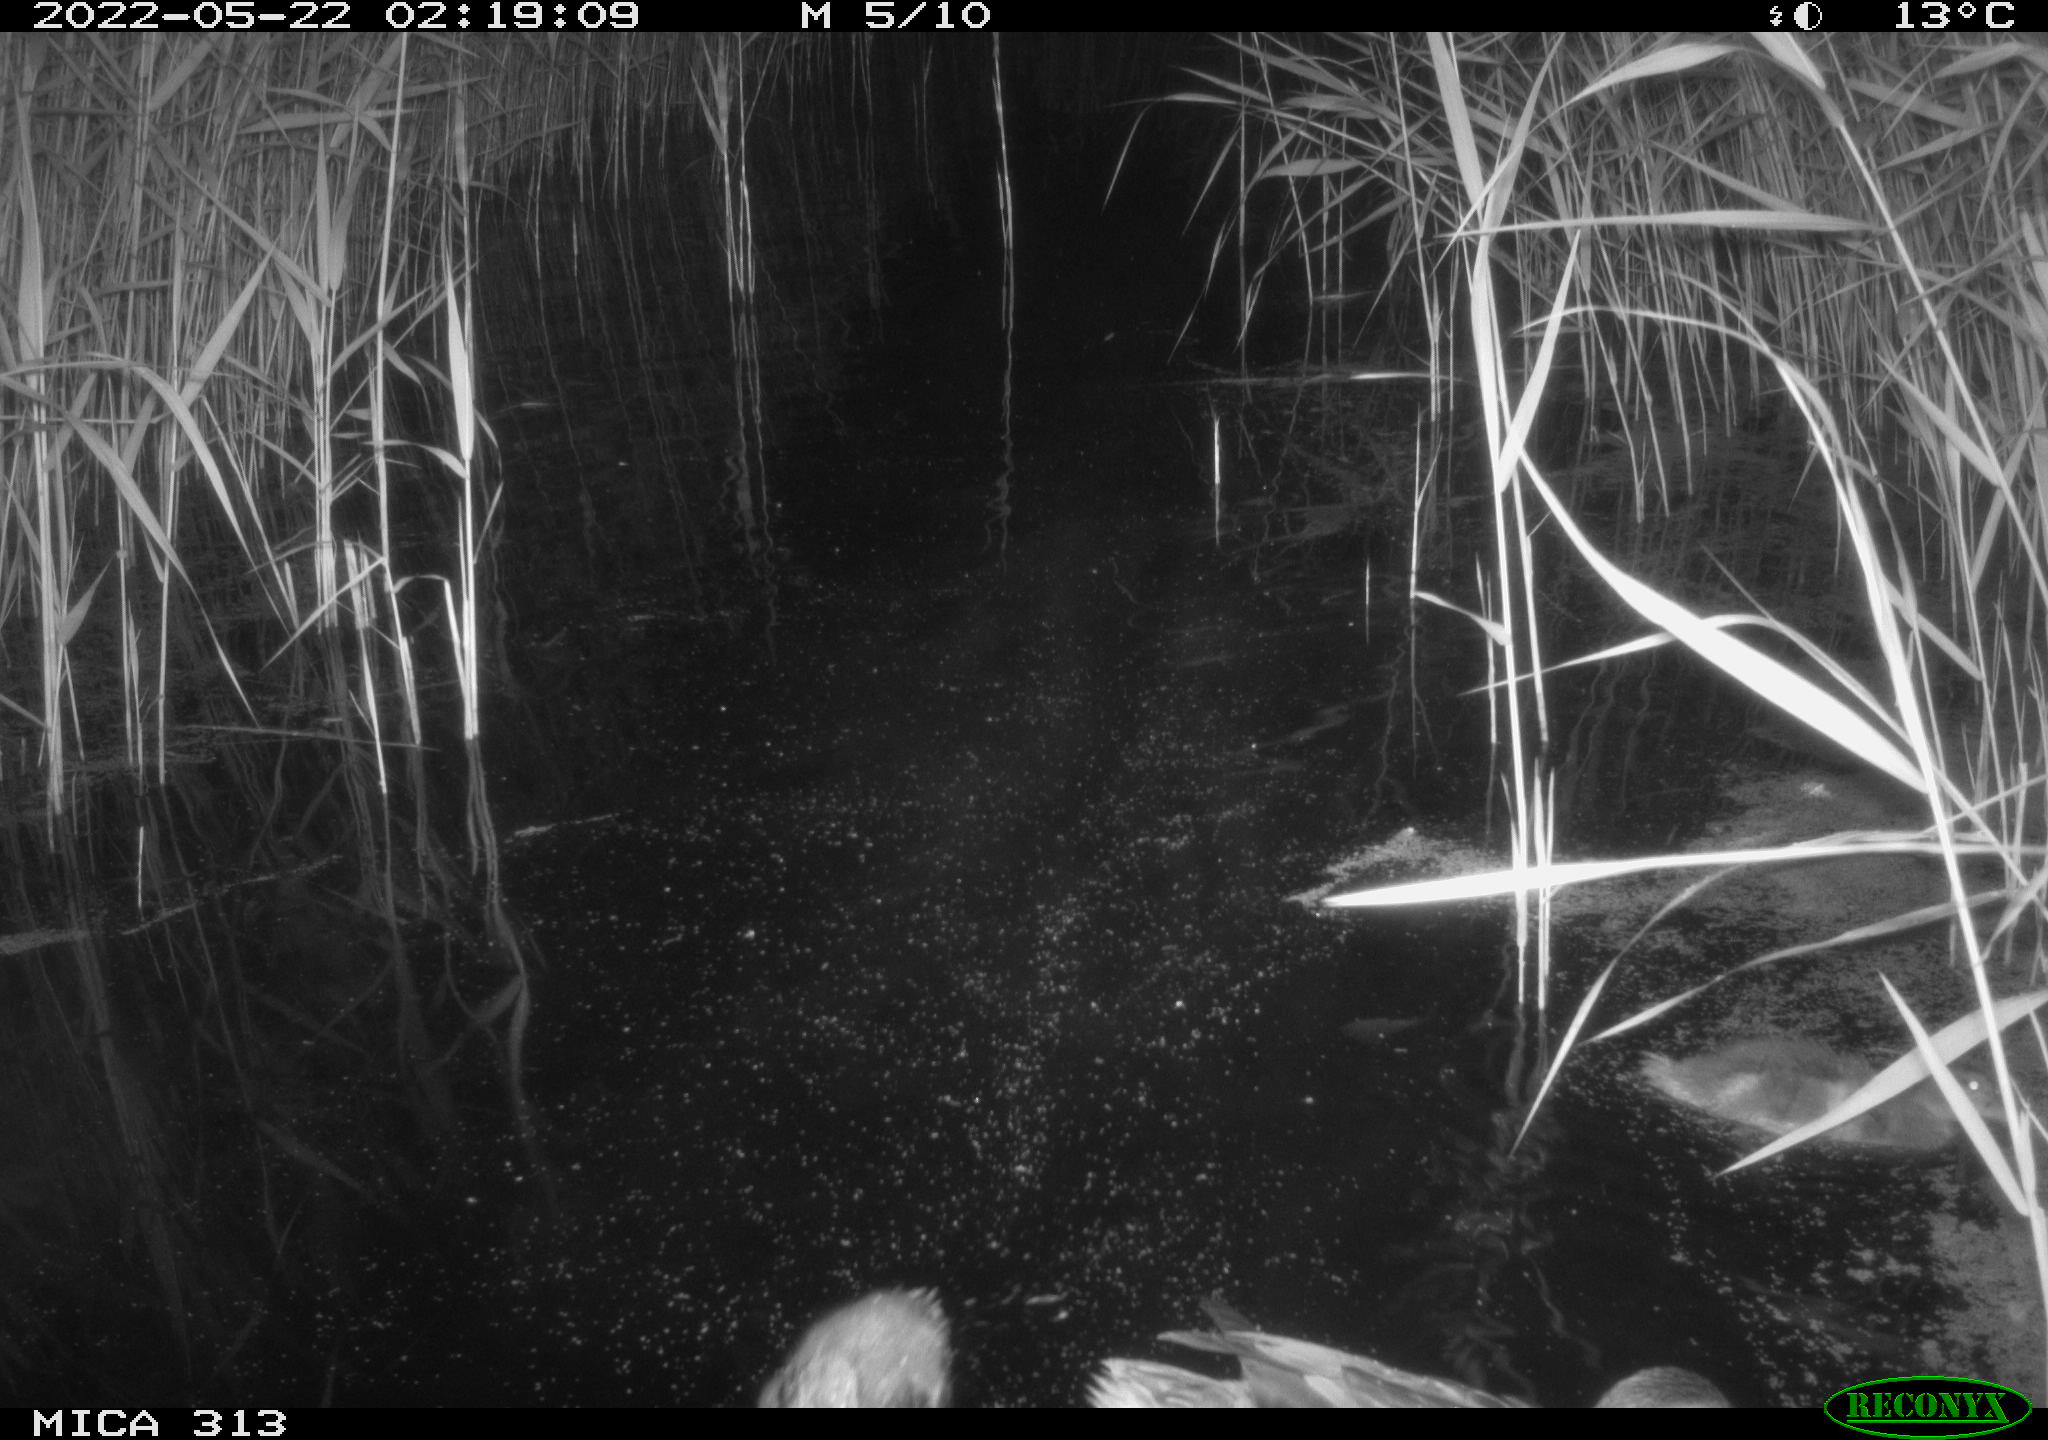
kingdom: Animalia
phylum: Chordata
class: Aves
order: Anseriformes
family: Anatidae
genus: Anas
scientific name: Anas platyrhynchos
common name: Mallard
